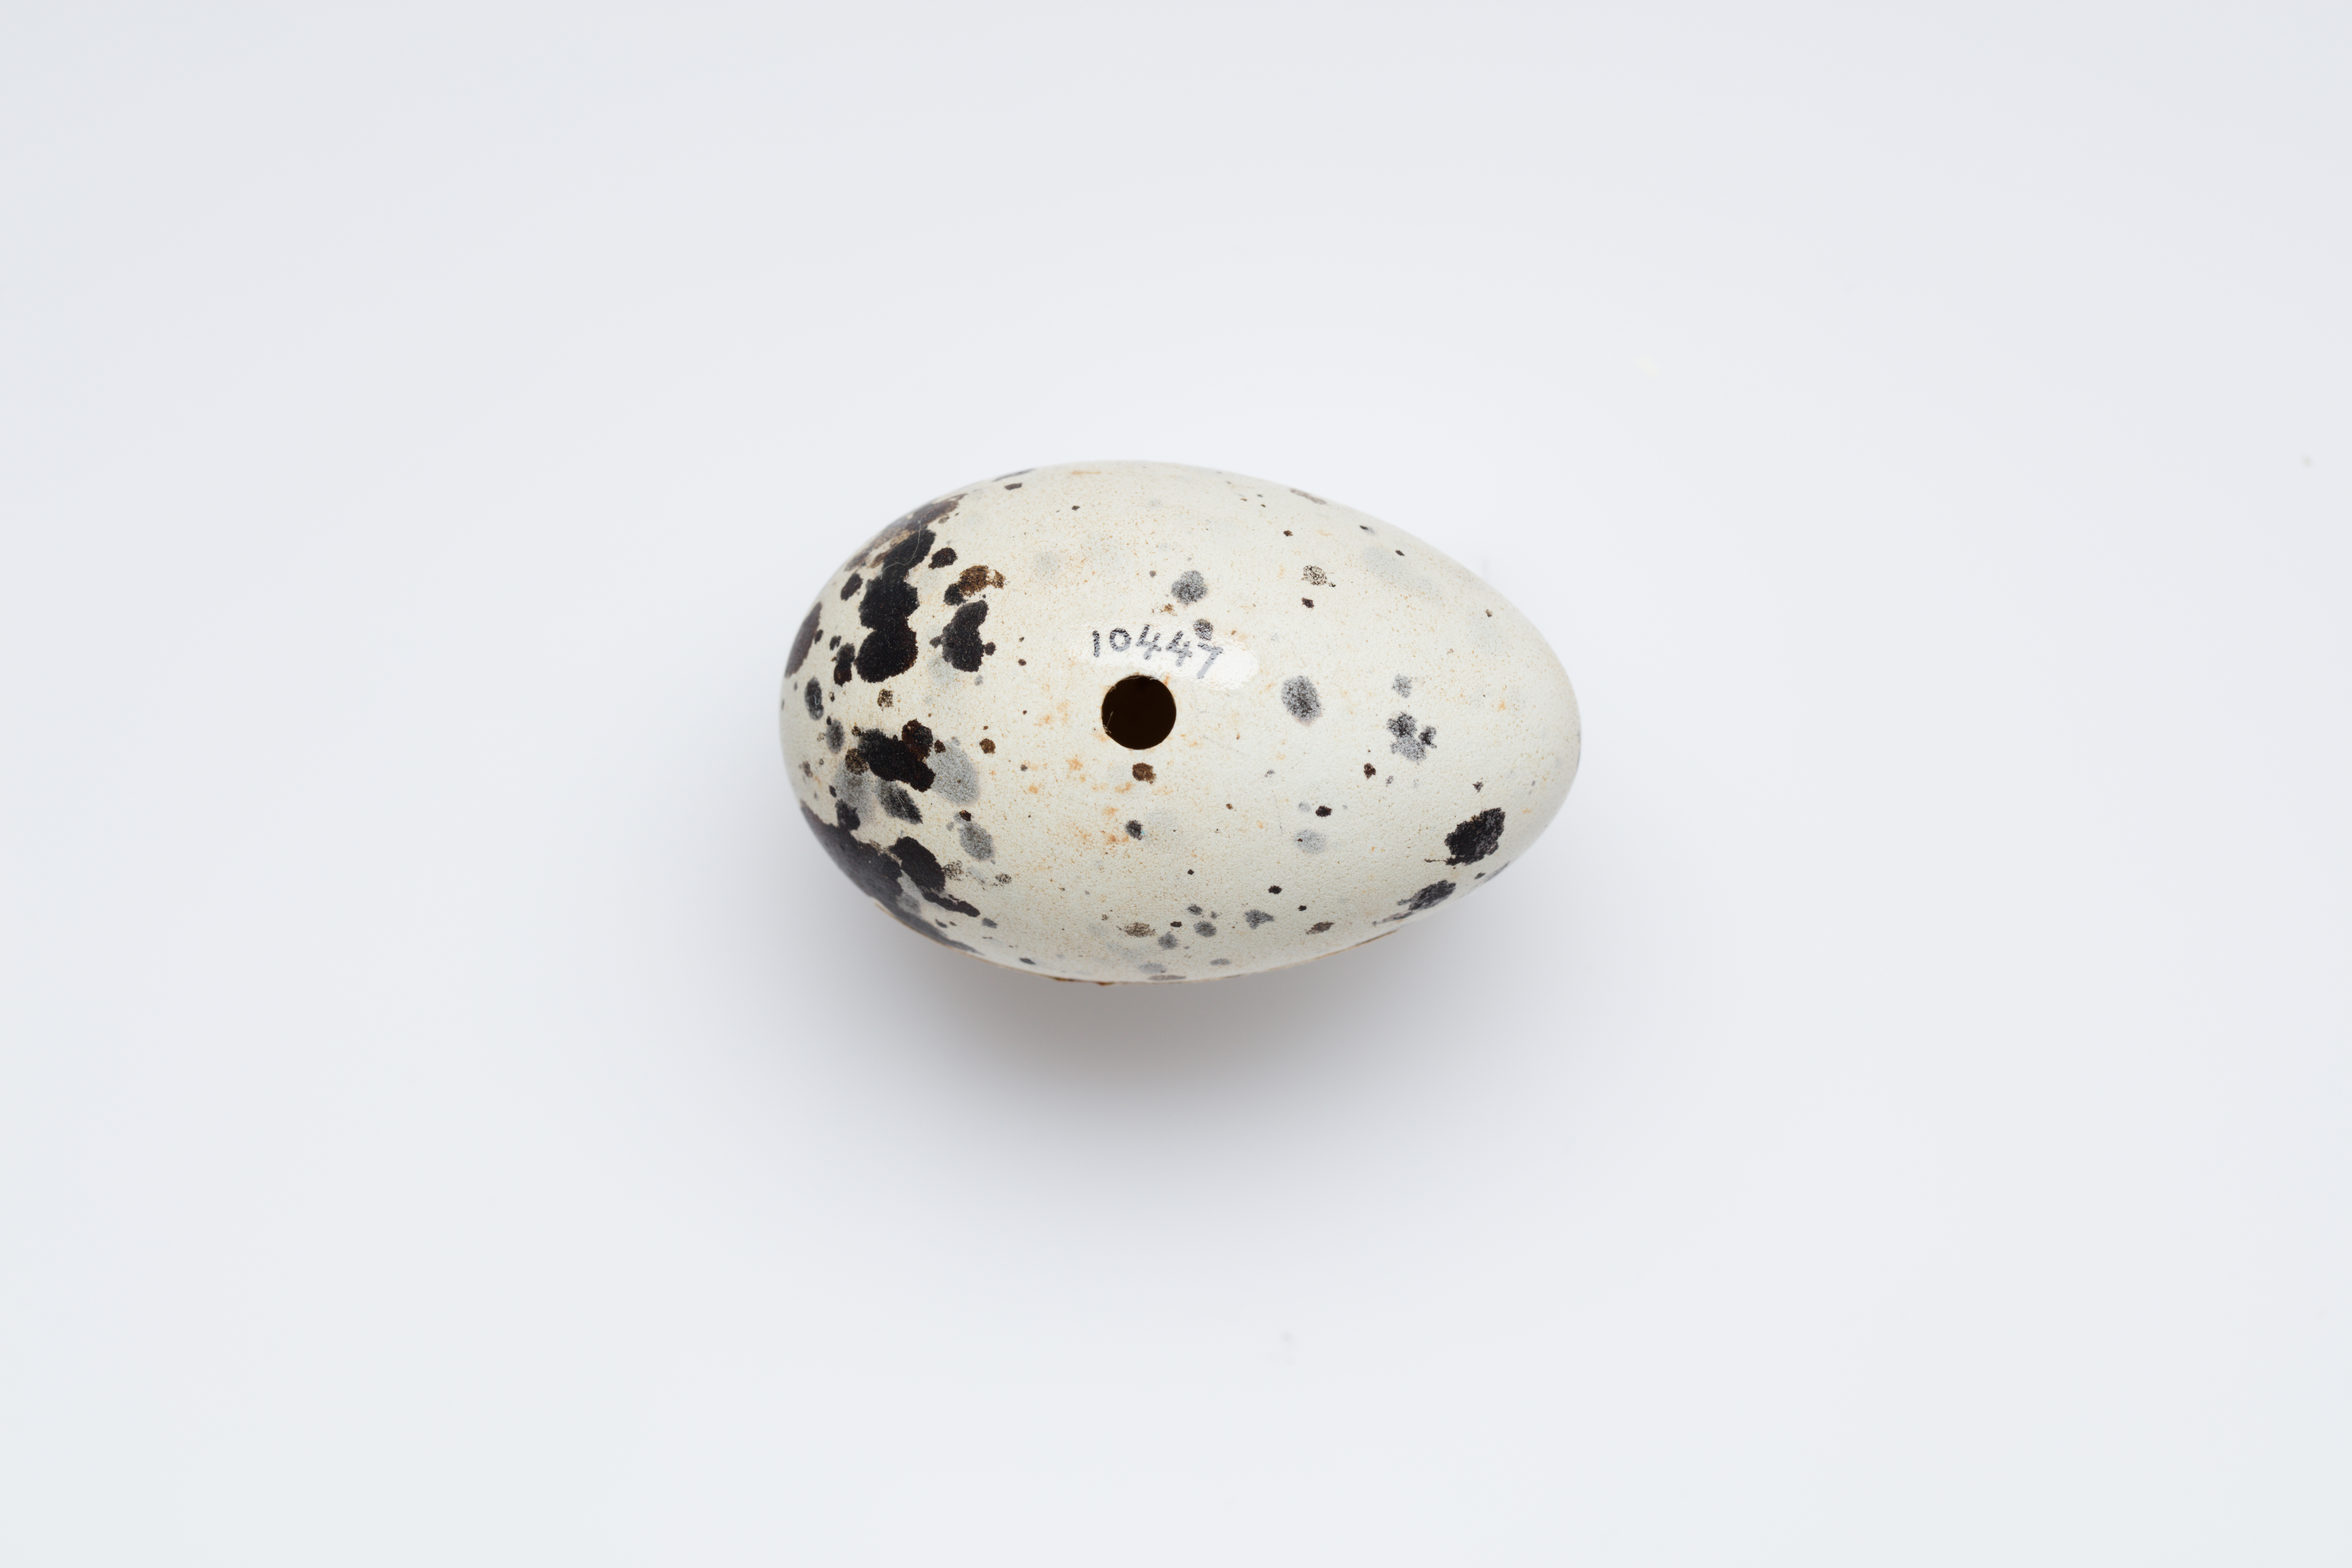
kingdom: Animalia
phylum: Chordata
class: Aves
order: Charadriiformes
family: Alcidae
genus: Cepphus
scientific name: Cepphus grylle
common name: Black guillemot
